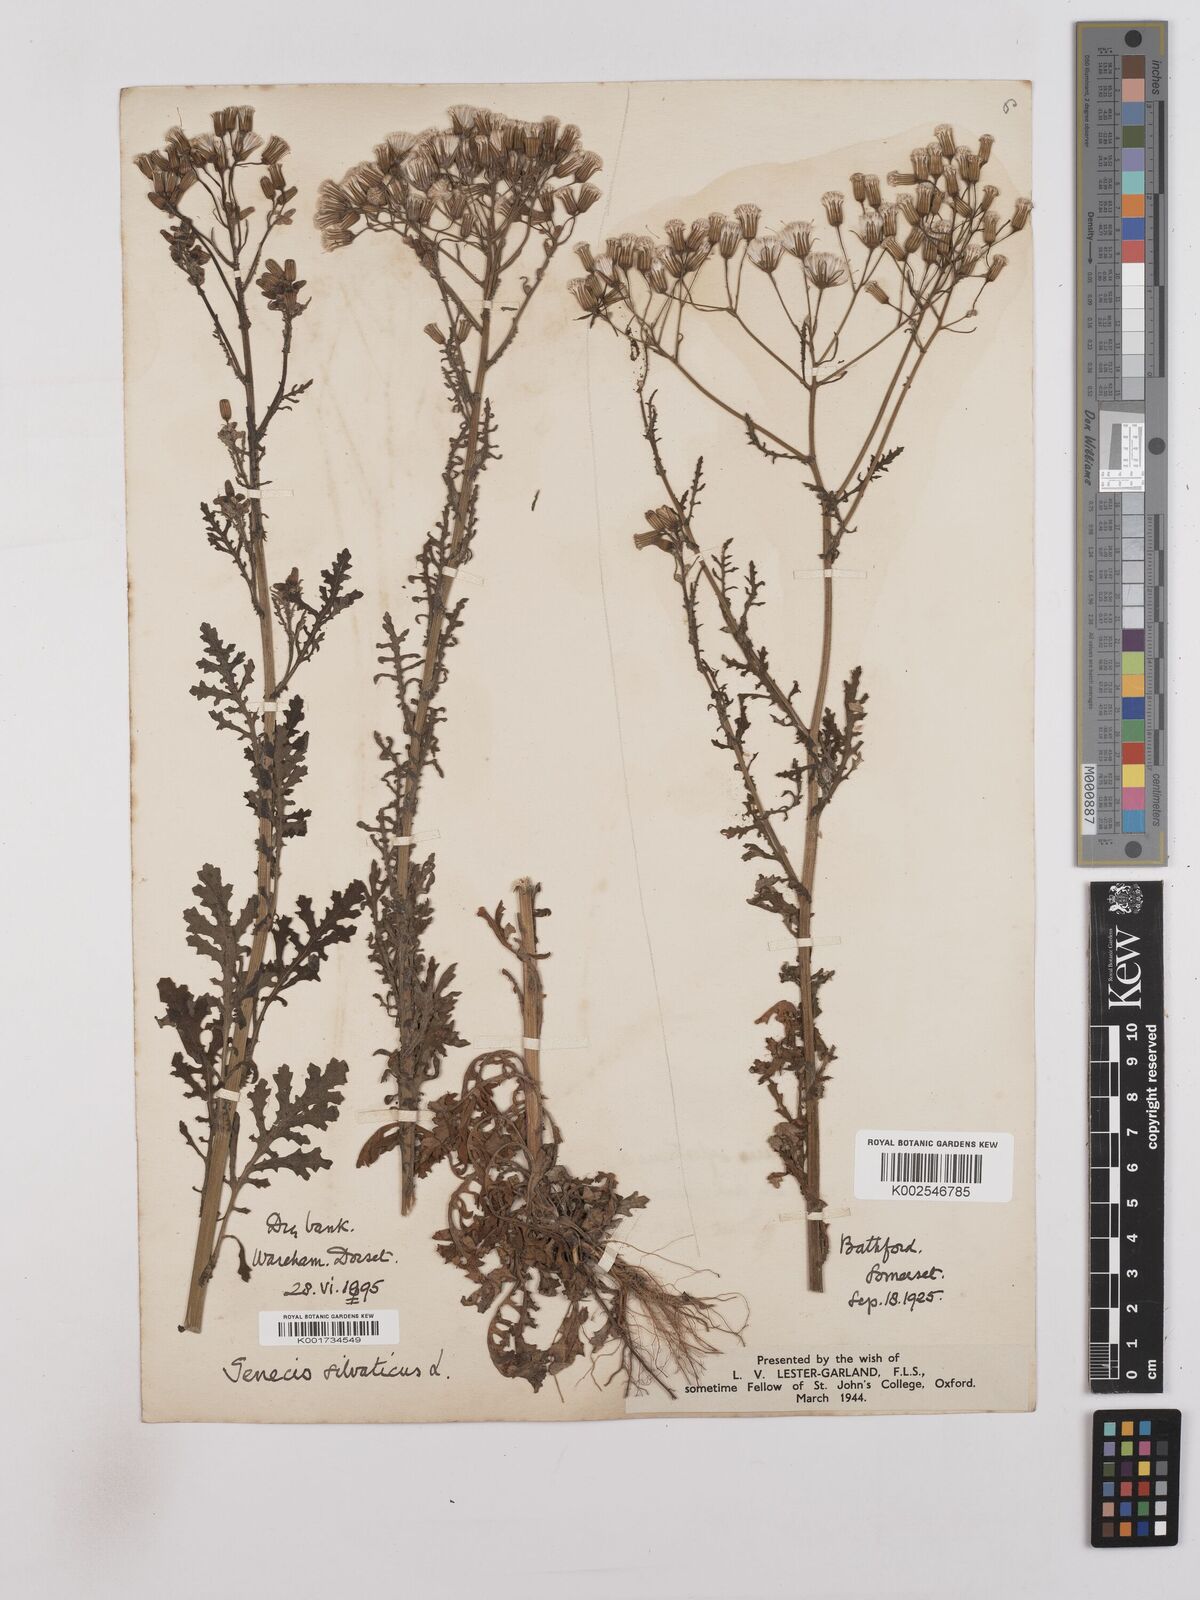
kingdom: Plantae
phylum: Tracheophyta
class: Magnoliopsida
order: Asterales
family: Asteraceae
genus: Senecio
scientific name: Senecio sylvaticus
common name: Woodland ragwort
